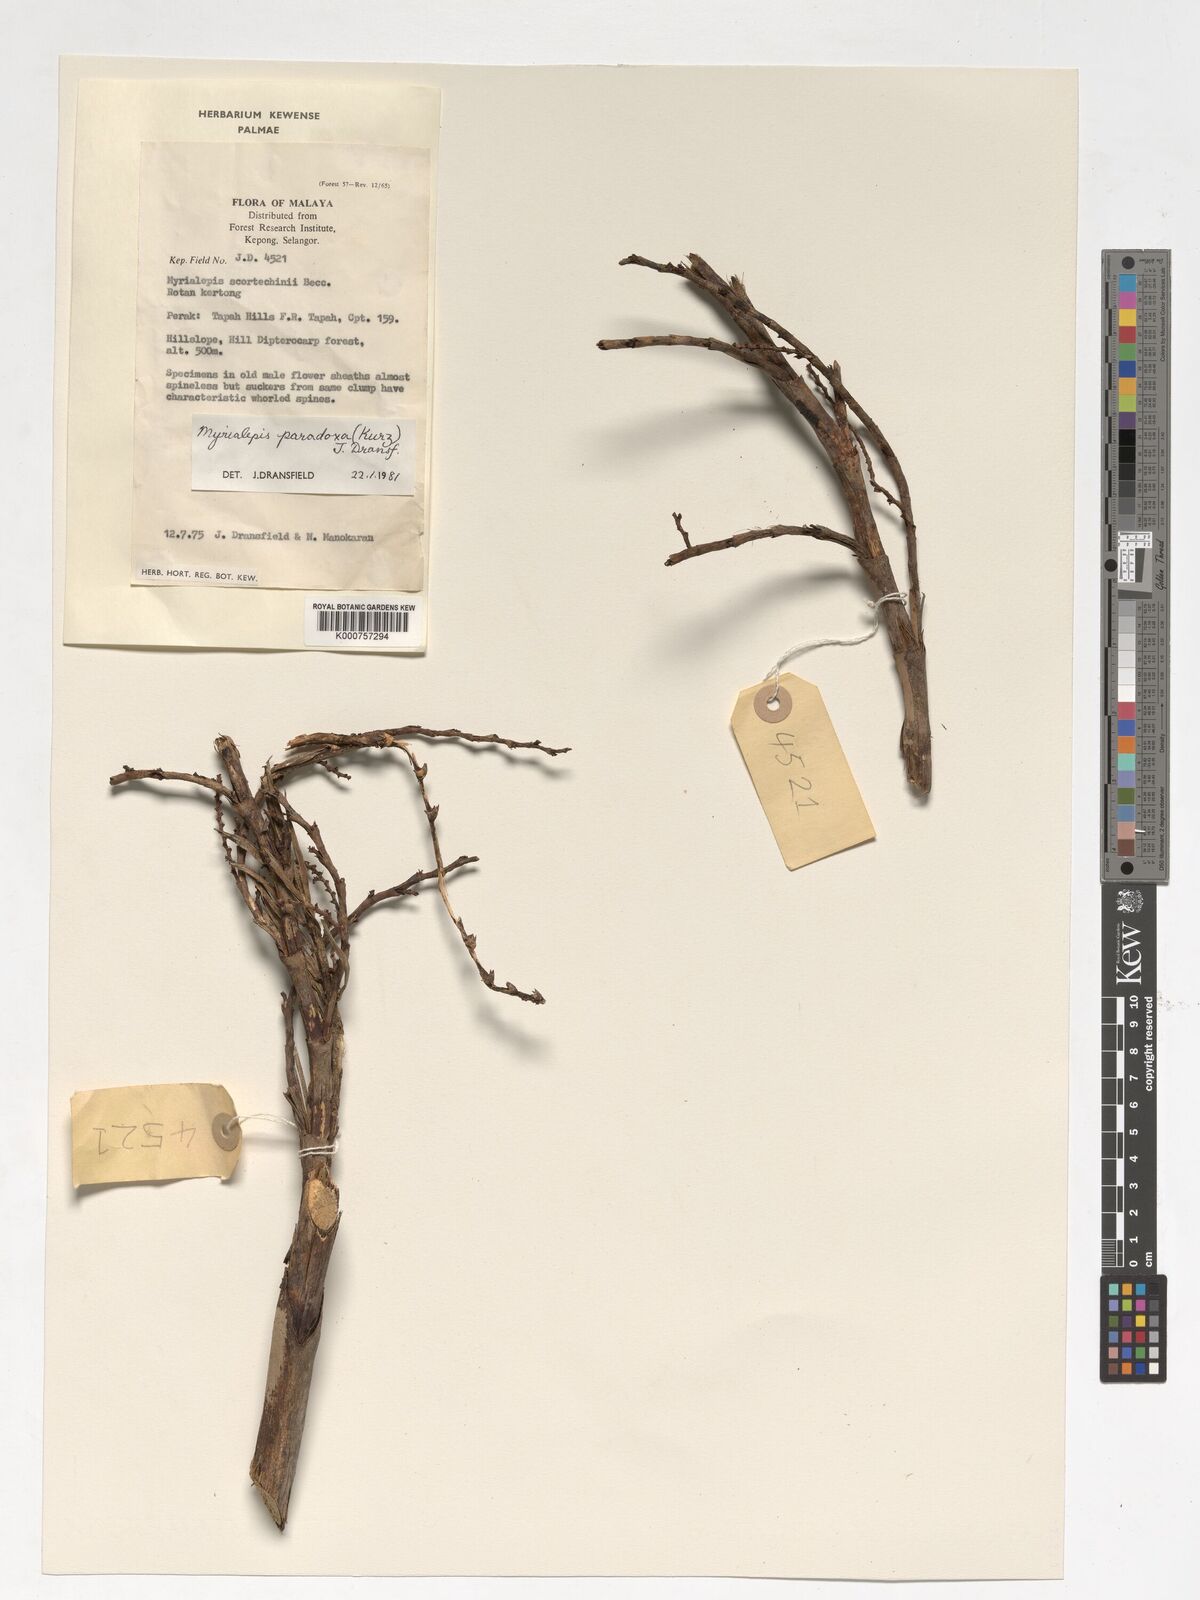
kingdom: Plantae
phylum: Tracheophyta
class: Liliopsida
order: Arecales
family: Arecaceae
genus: Myrialepis
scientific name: Myrialepis paradoxa
